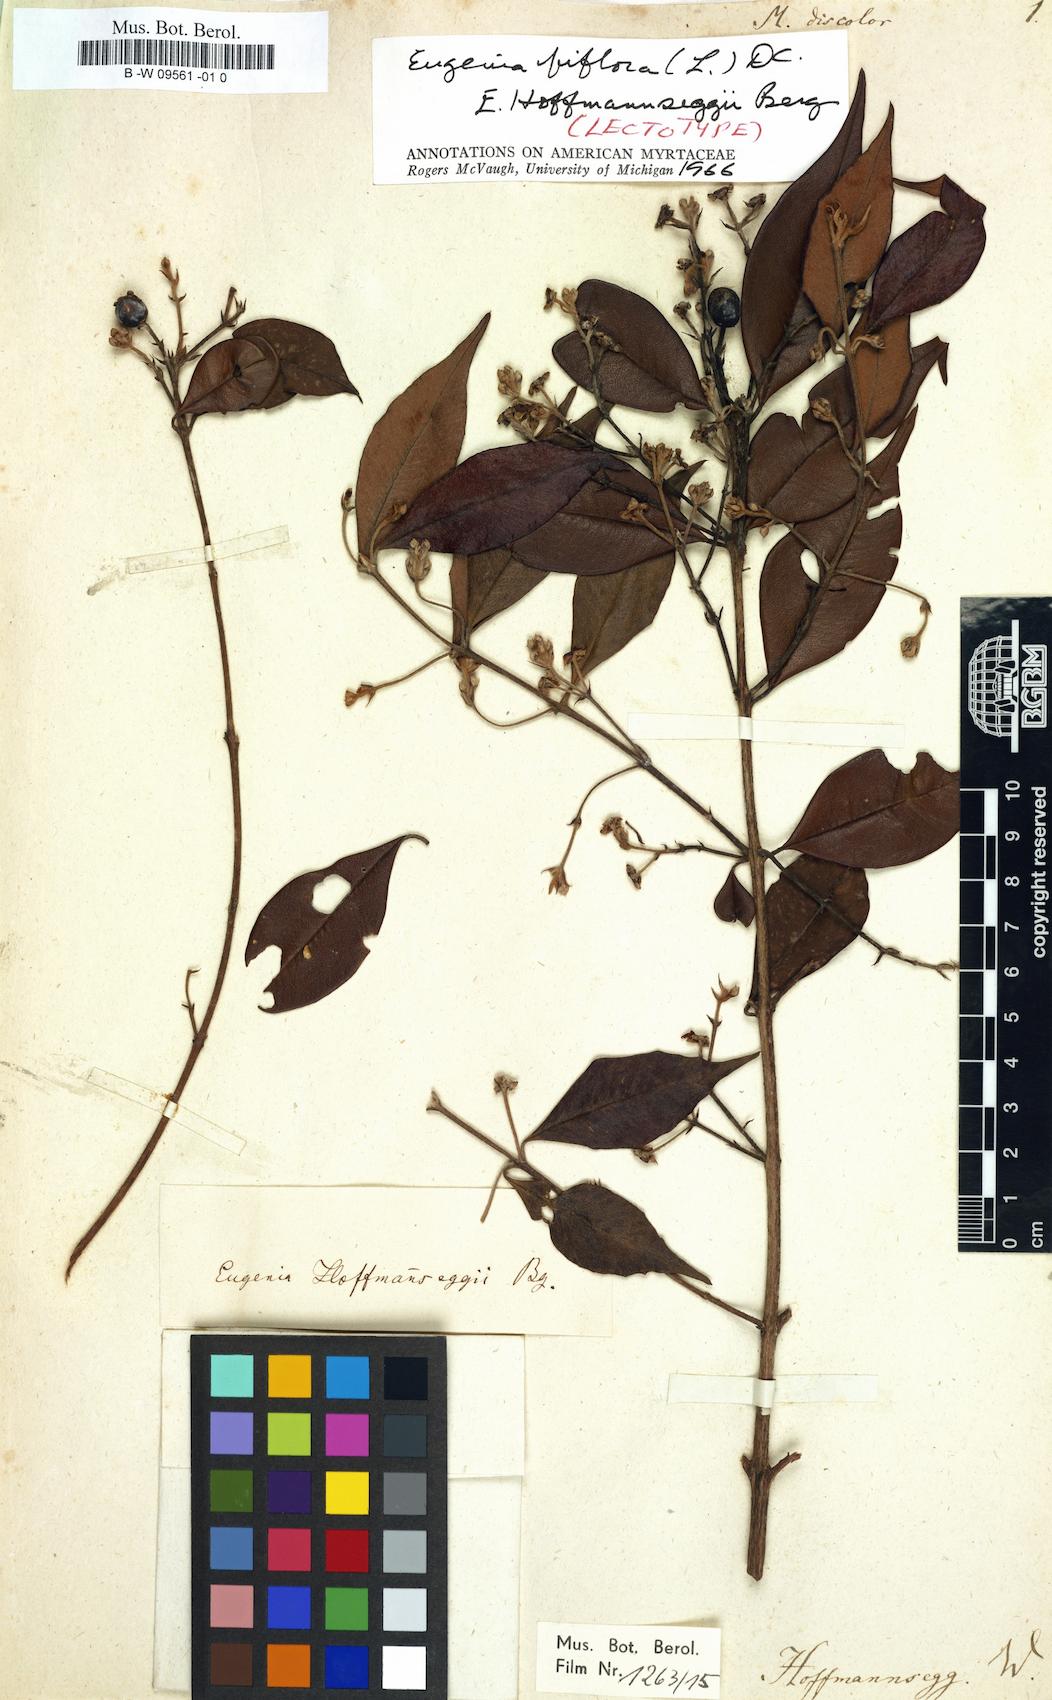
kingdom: Plantae
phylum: Tracheophyta
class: Magnoliopsida
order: Myrtales
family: Myrtaceae
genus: Myrcianthes
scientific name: Myrcianthes discolor
